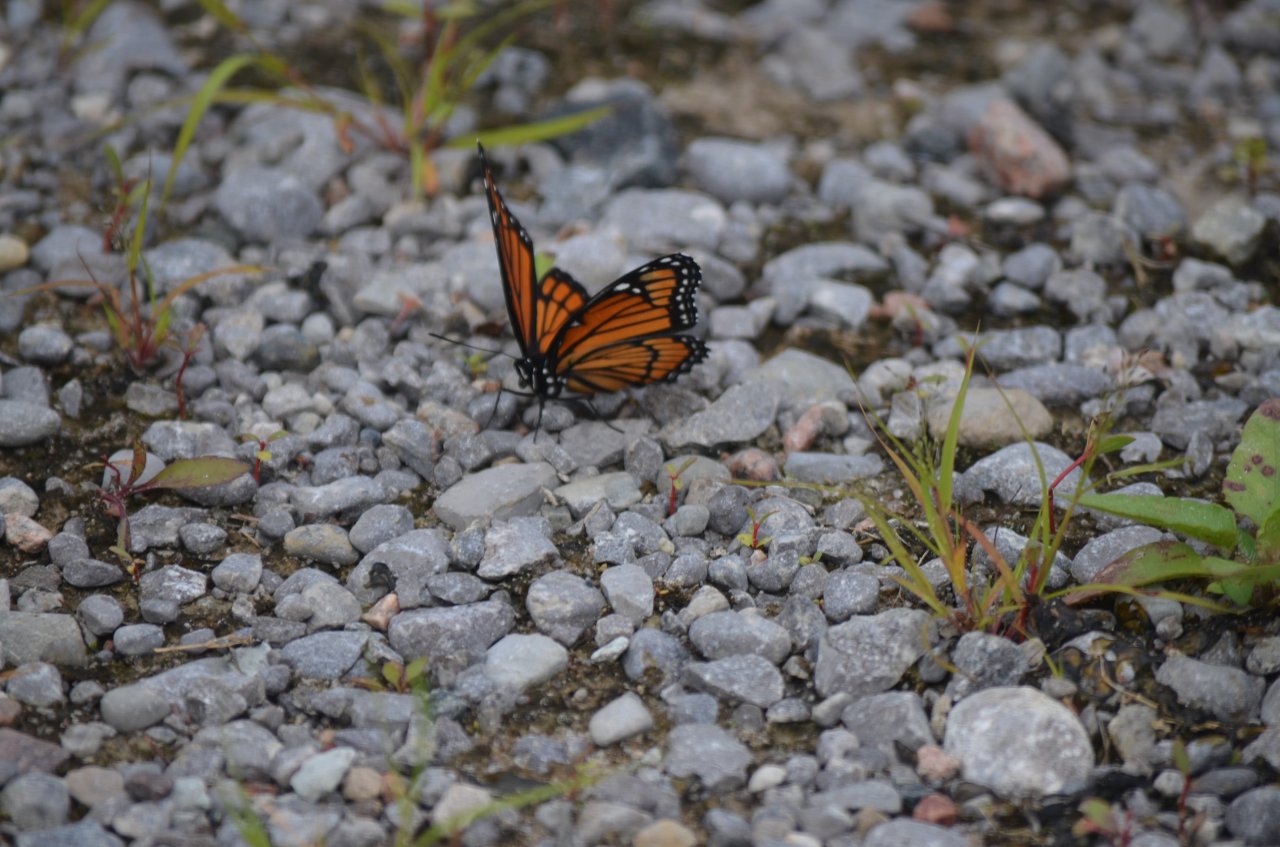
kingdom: Animalia
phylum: Arthropoda
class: Insecta
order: Lepidoptera
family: Nymphalidae
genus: Limenitis
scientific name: Limenitis archippus
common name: Viceroy
